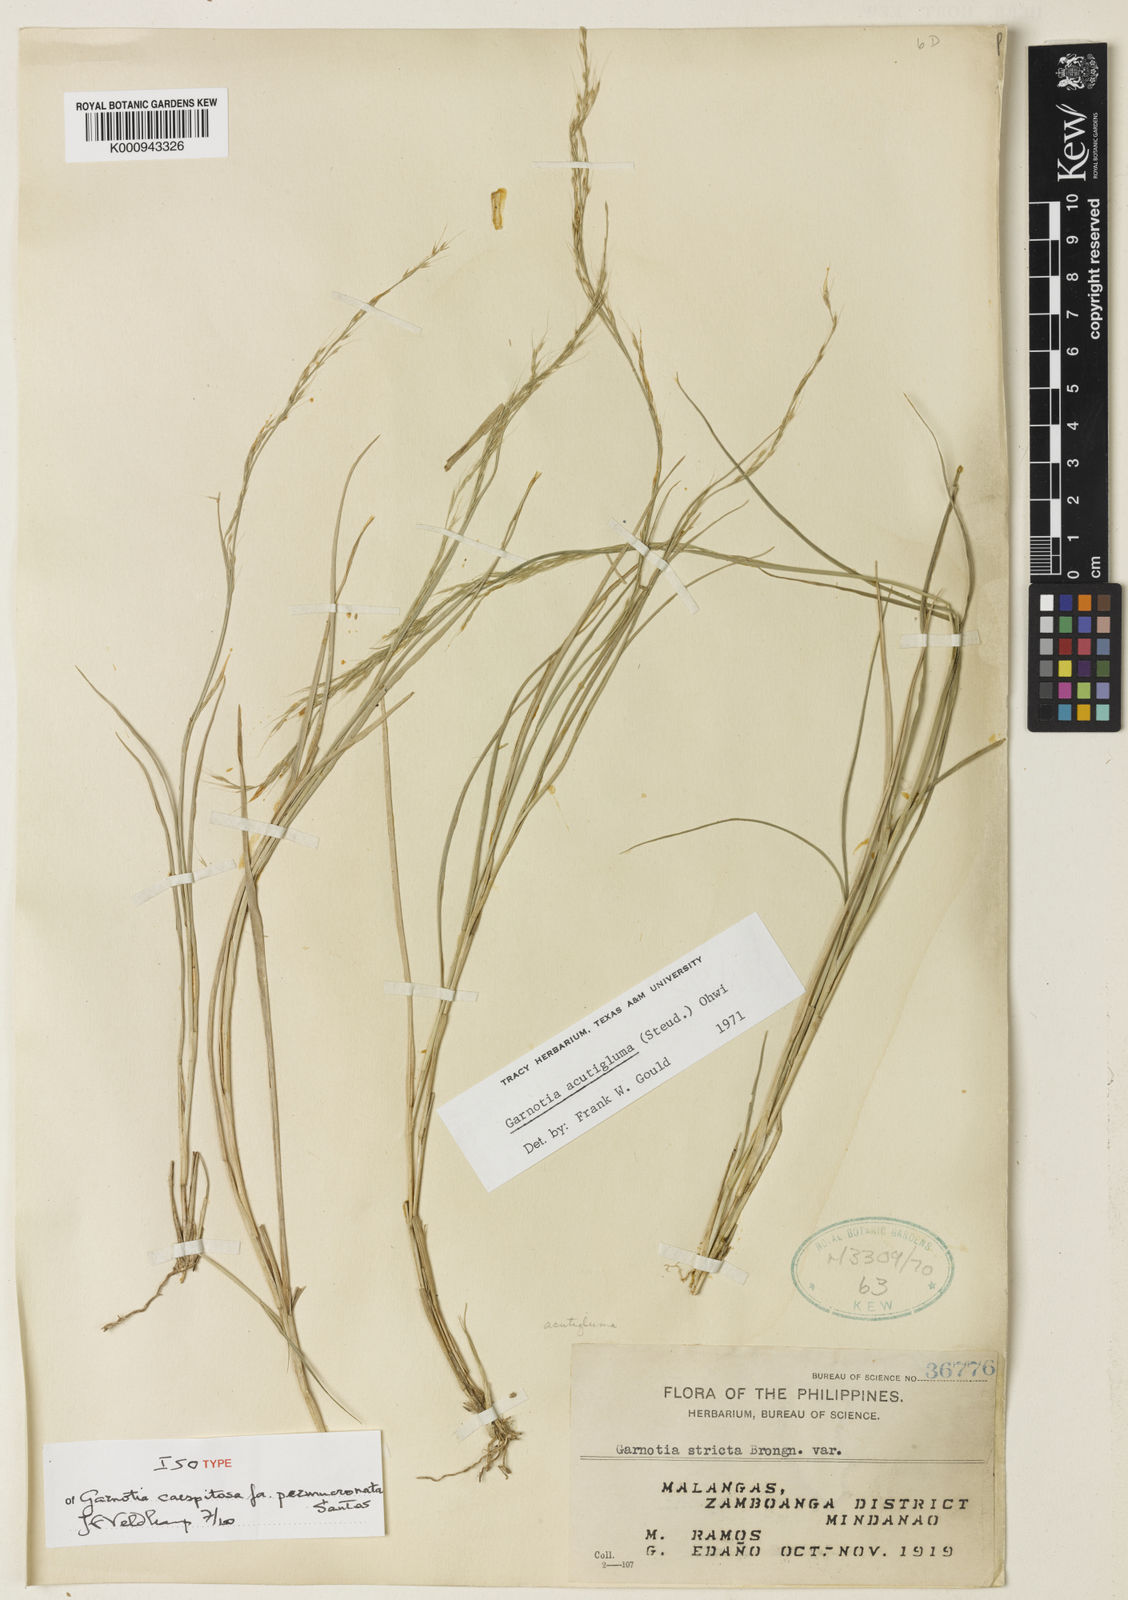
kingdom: Plantae
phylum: Tracheophyta
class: Liliopsida
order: Poales
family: Poaceae
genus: Garnotia
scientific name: Garnotia stricta
